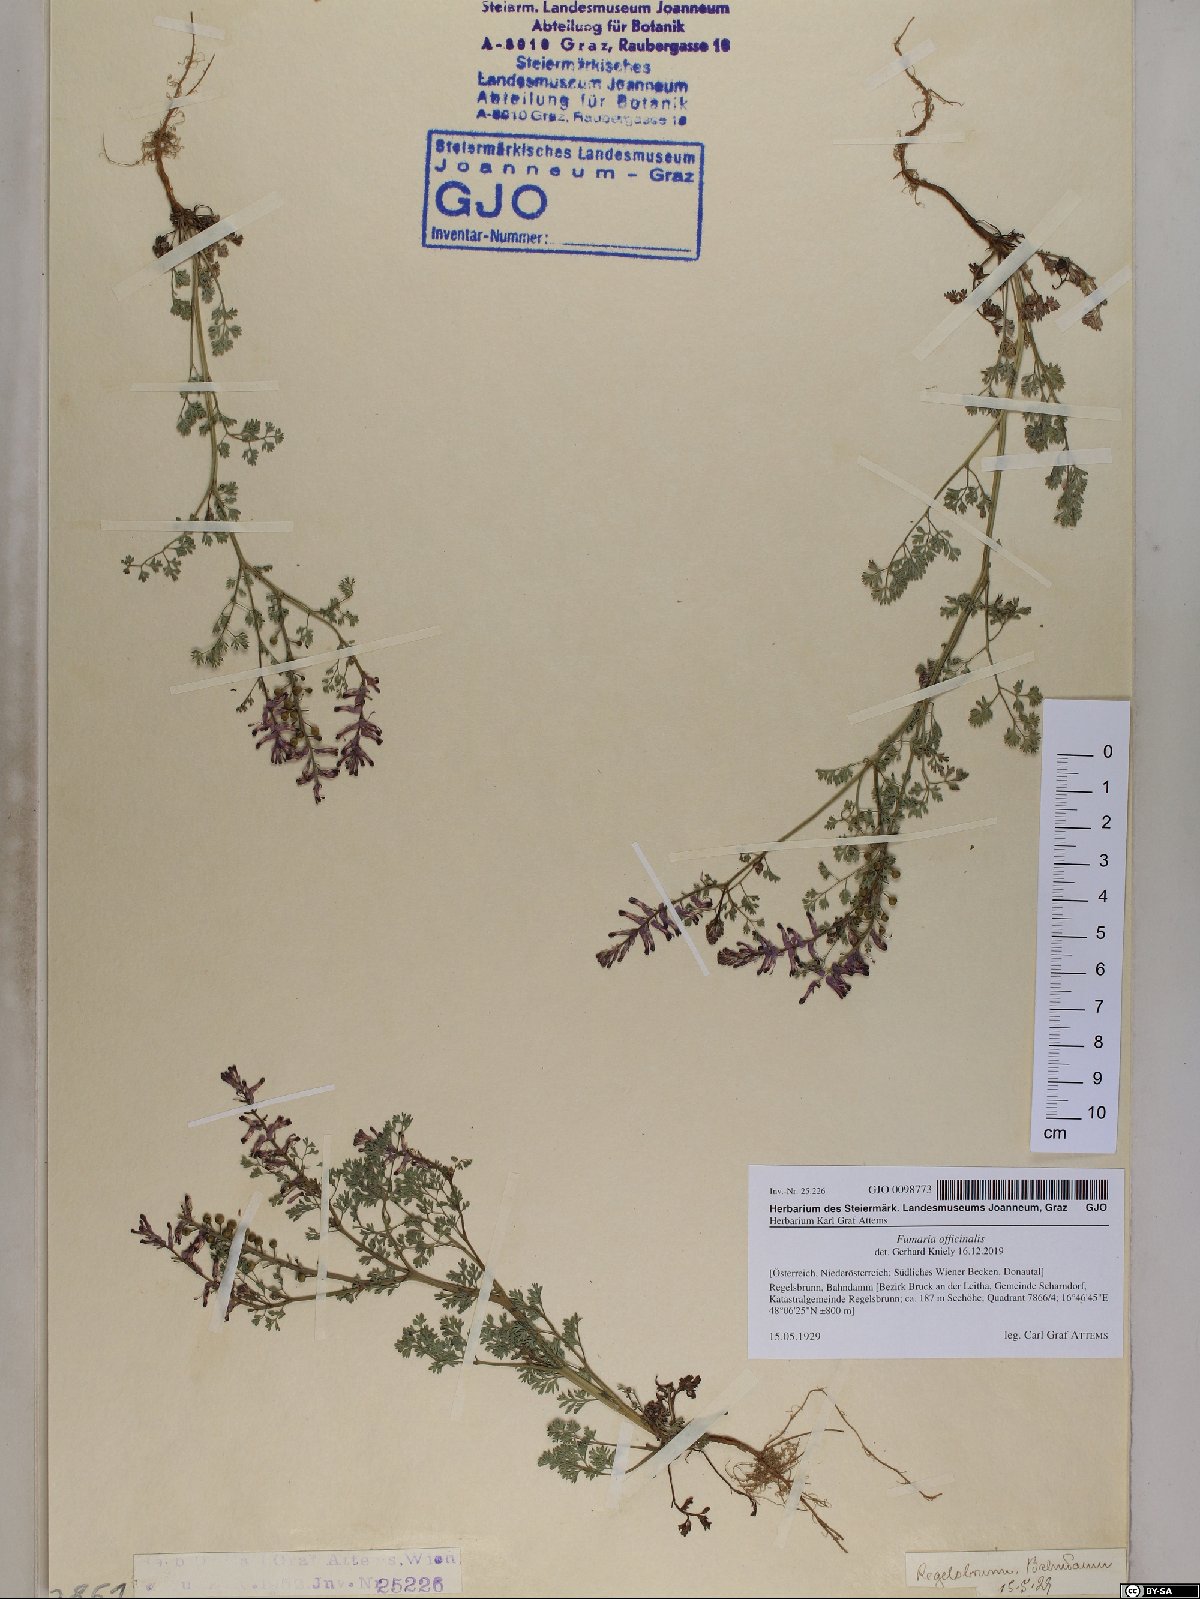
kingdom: Plantae
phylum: Tracheophyta
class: Magnoliopsida
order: Ranunculales
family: Papaveraceae
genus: Fumaria
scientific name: Fumaria officinalis
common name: Common fumitory
